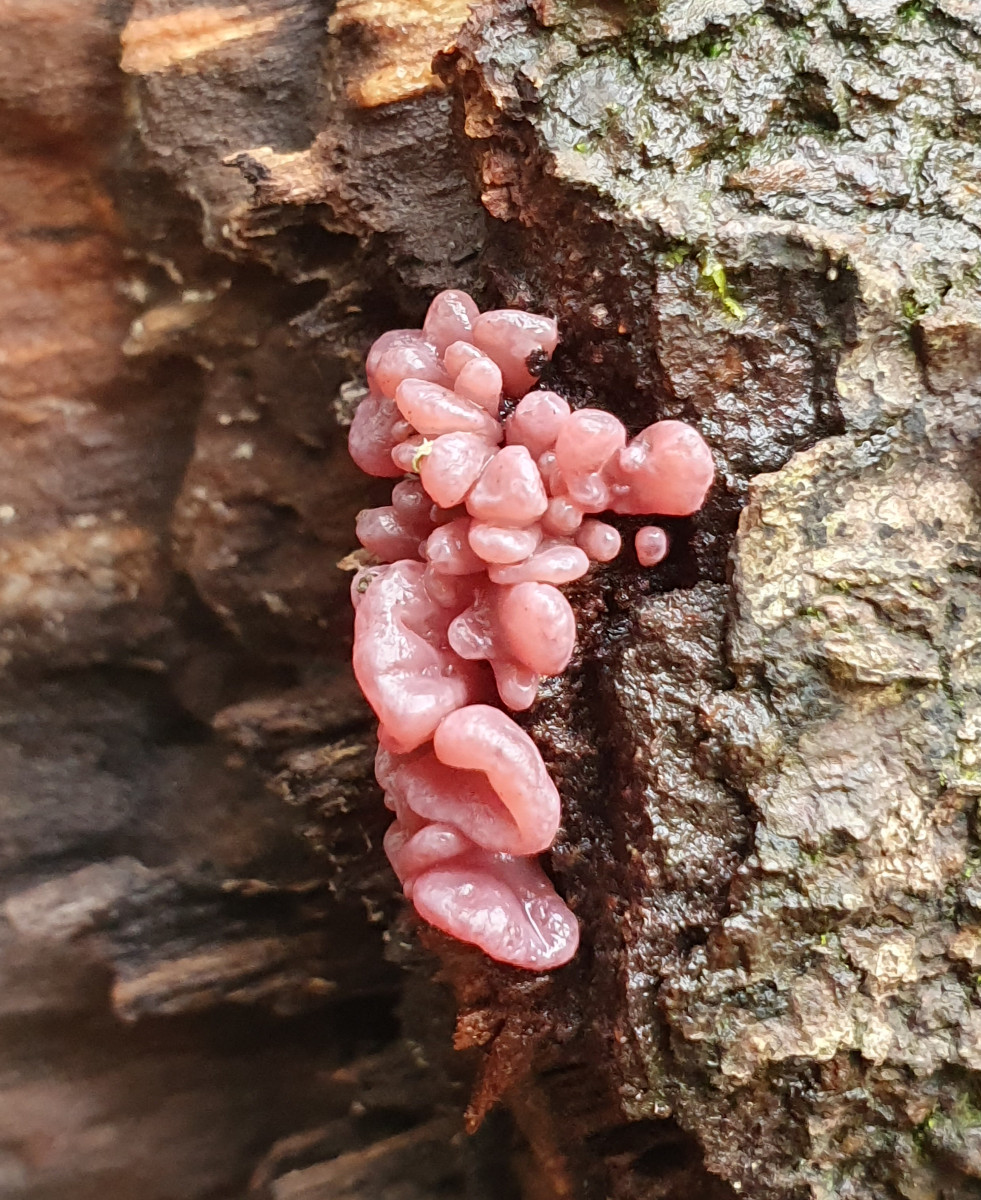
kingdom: Fungi
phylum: Ascomycota
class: Leotiomycetes
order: Helotiales
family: Gelatinodiscaceae
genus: Ascocoryne
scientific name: Ascocoryne sarcoides
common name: rødlilla sejskive
